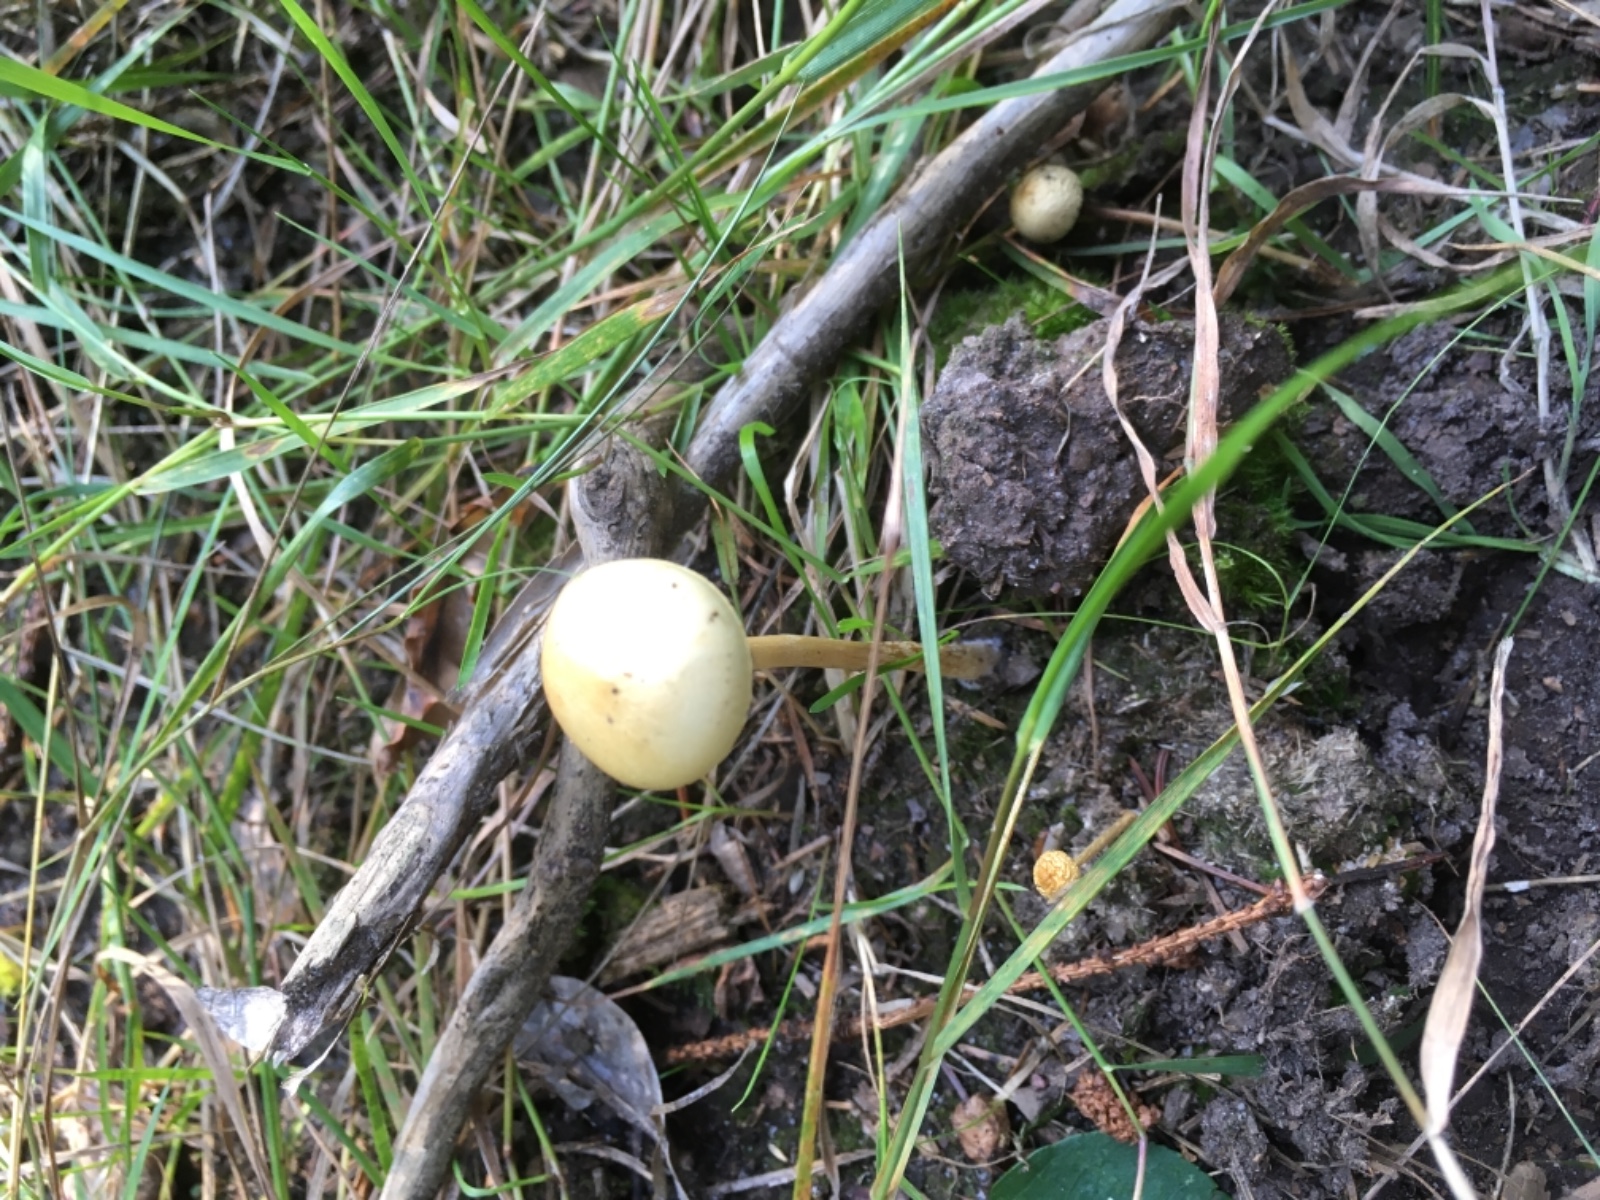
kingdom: Fungi
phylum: Basidiomycota
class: Agaricomycetes
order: Agaricales
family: Strophariaceae
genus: Protostropharia
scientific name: Protostropharia semiglobata
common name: halvkugleformet bredblad
